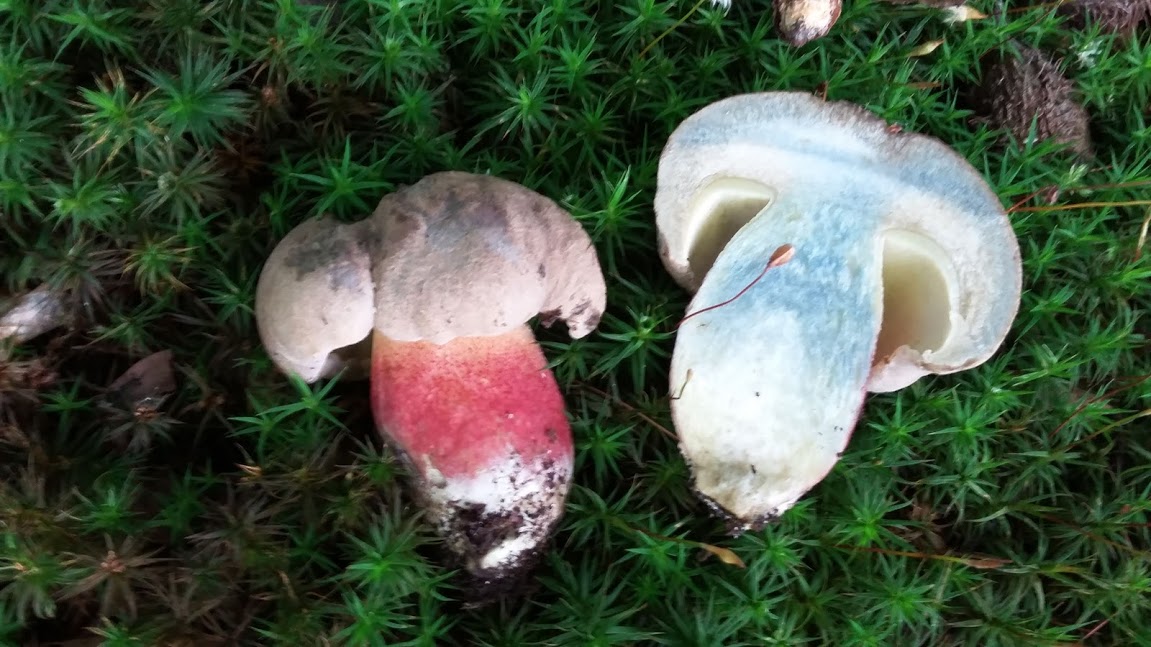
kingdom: Fungi
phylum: Basidiomycota
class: Agaricomycetes
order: Boletales
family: Boletaceae
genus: Caloboletus
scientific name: Caloboletus calopus
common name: skønfodet rørhat
